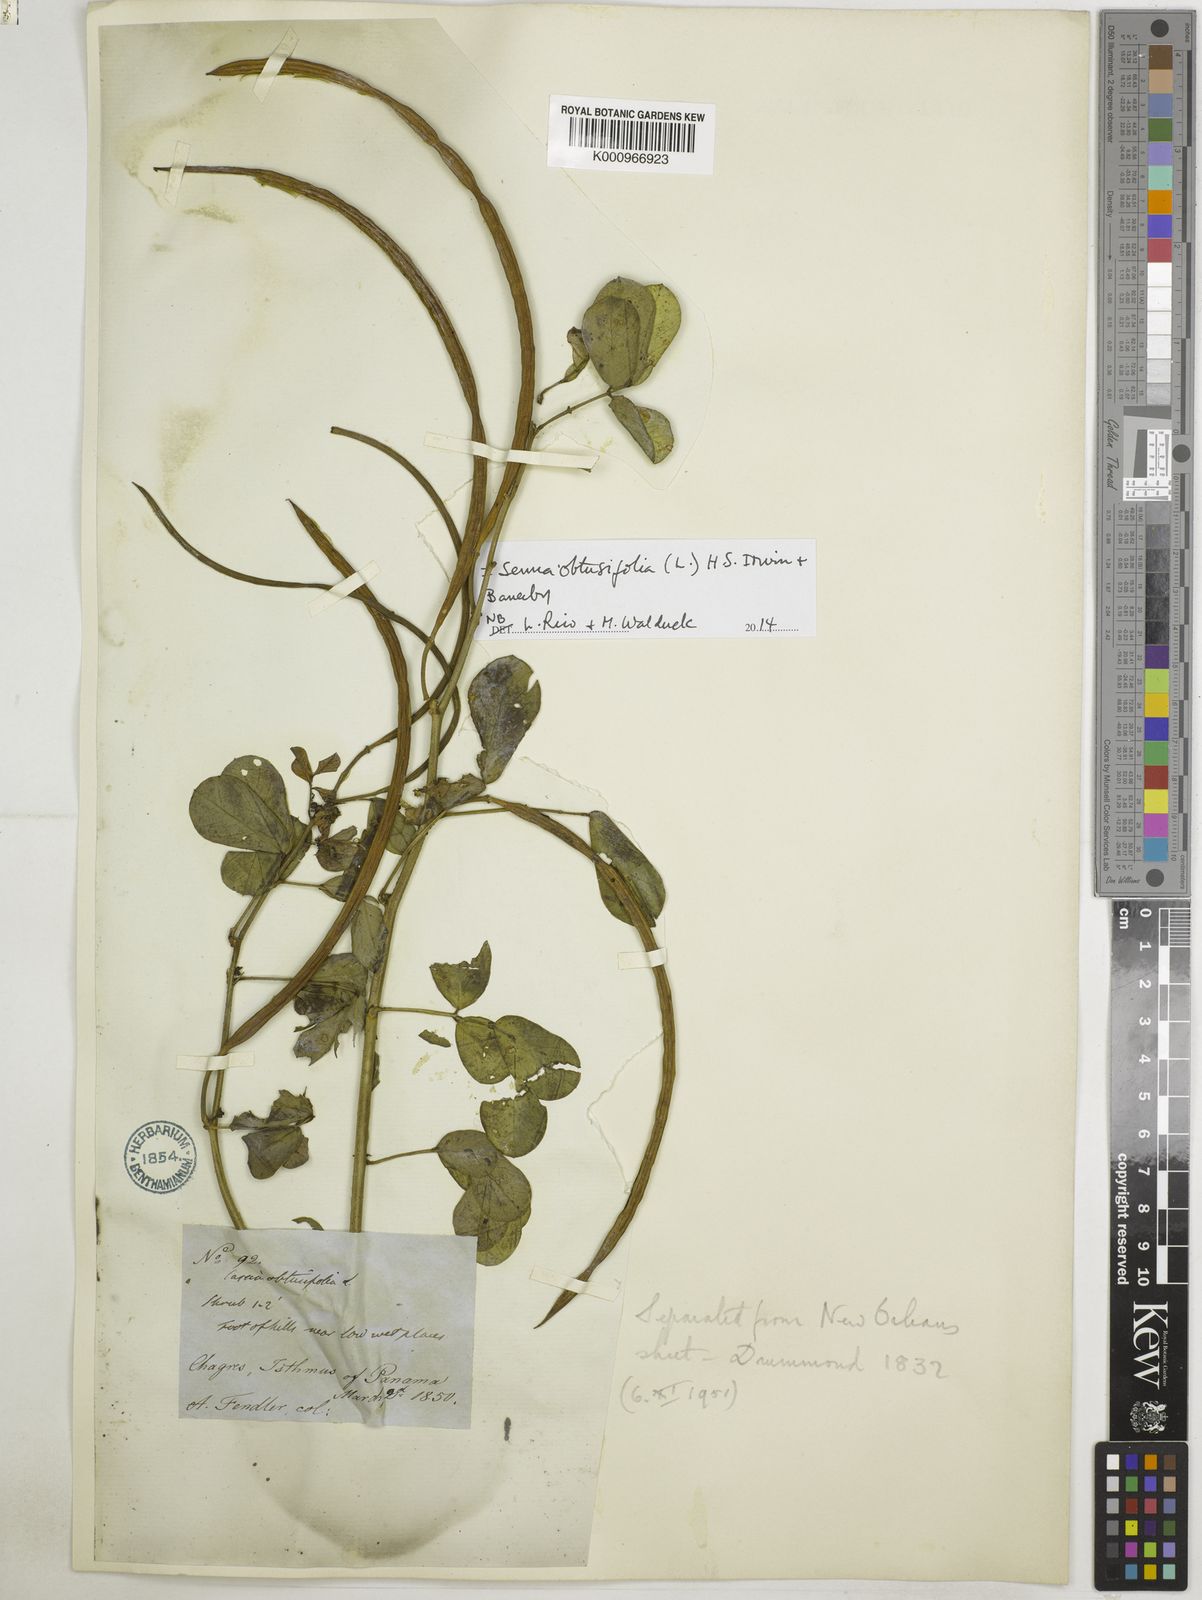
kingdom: Plantae
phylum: Tracheophyta
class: Magnoliopsida
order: Fabales
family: Fabaceae
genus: Senna
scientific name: Senna obtusifolia
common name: Java-bean
